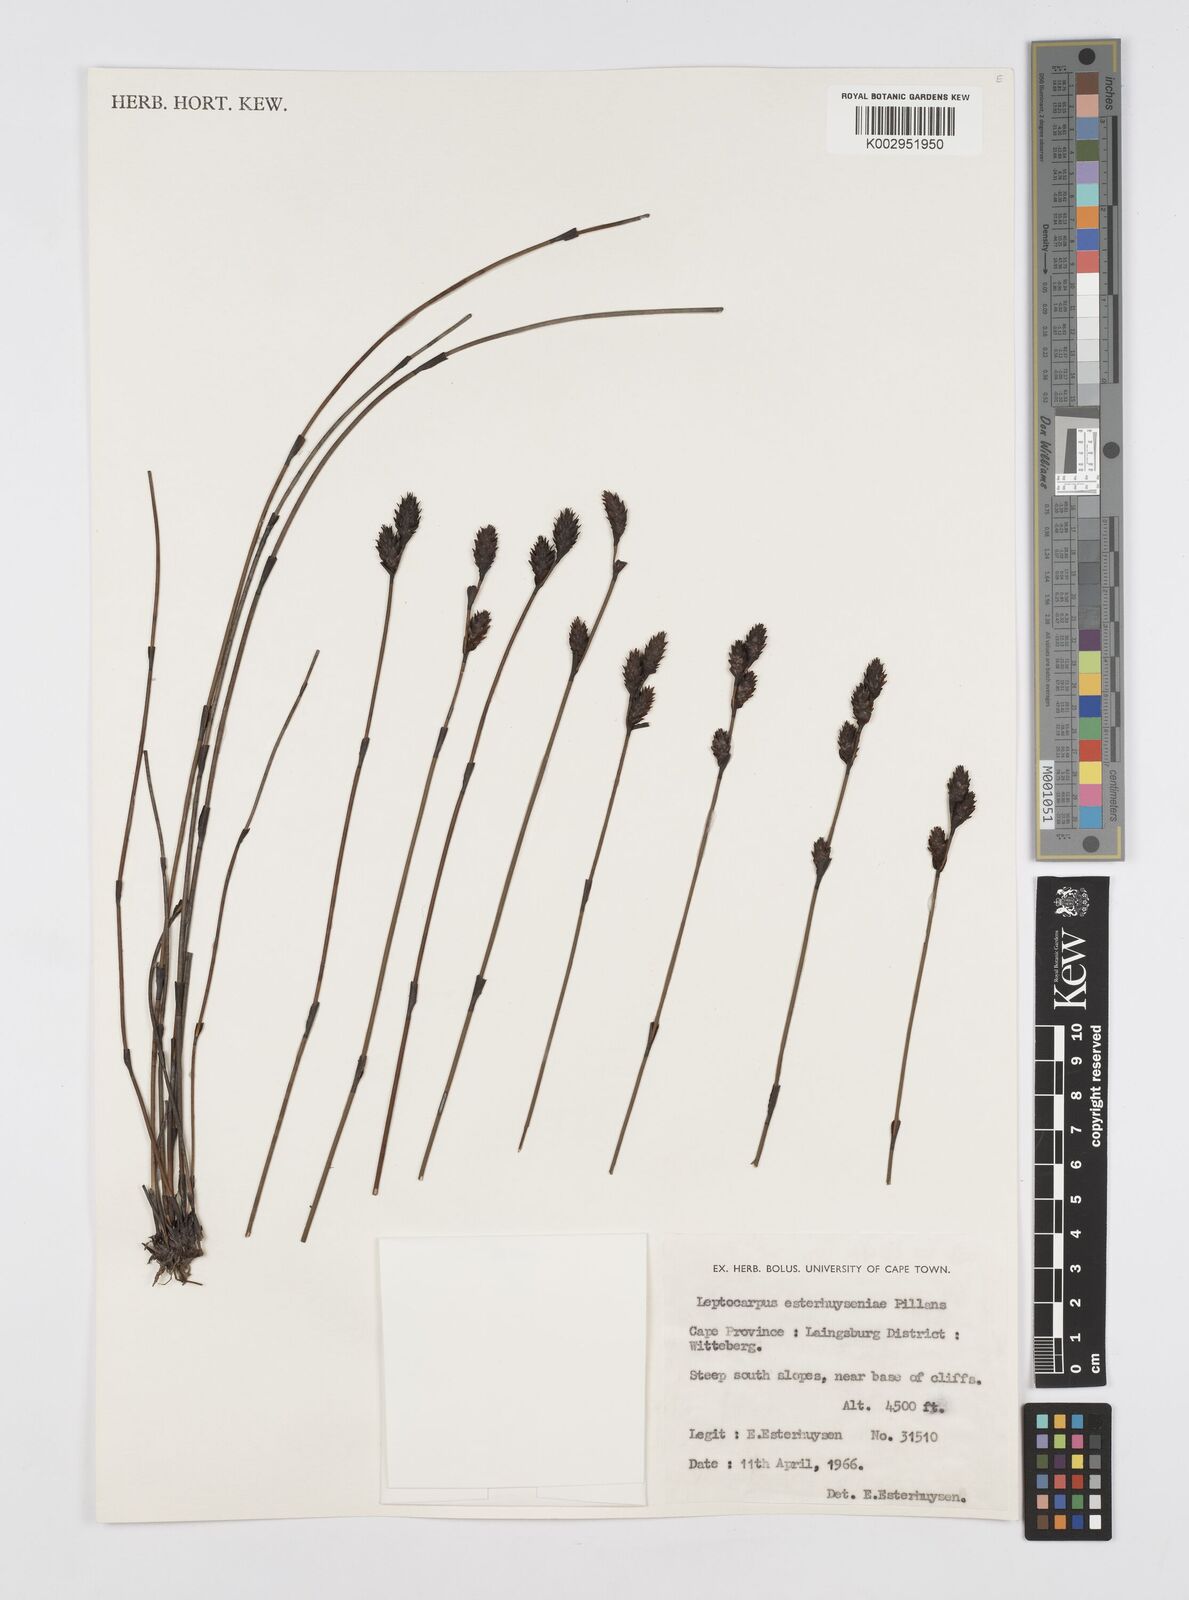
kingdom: Plantae
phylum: Tracheophyta
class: Liliopsida
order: Poales
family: Restionaceae
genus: Restio
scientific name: Restio esterhuyseniae
